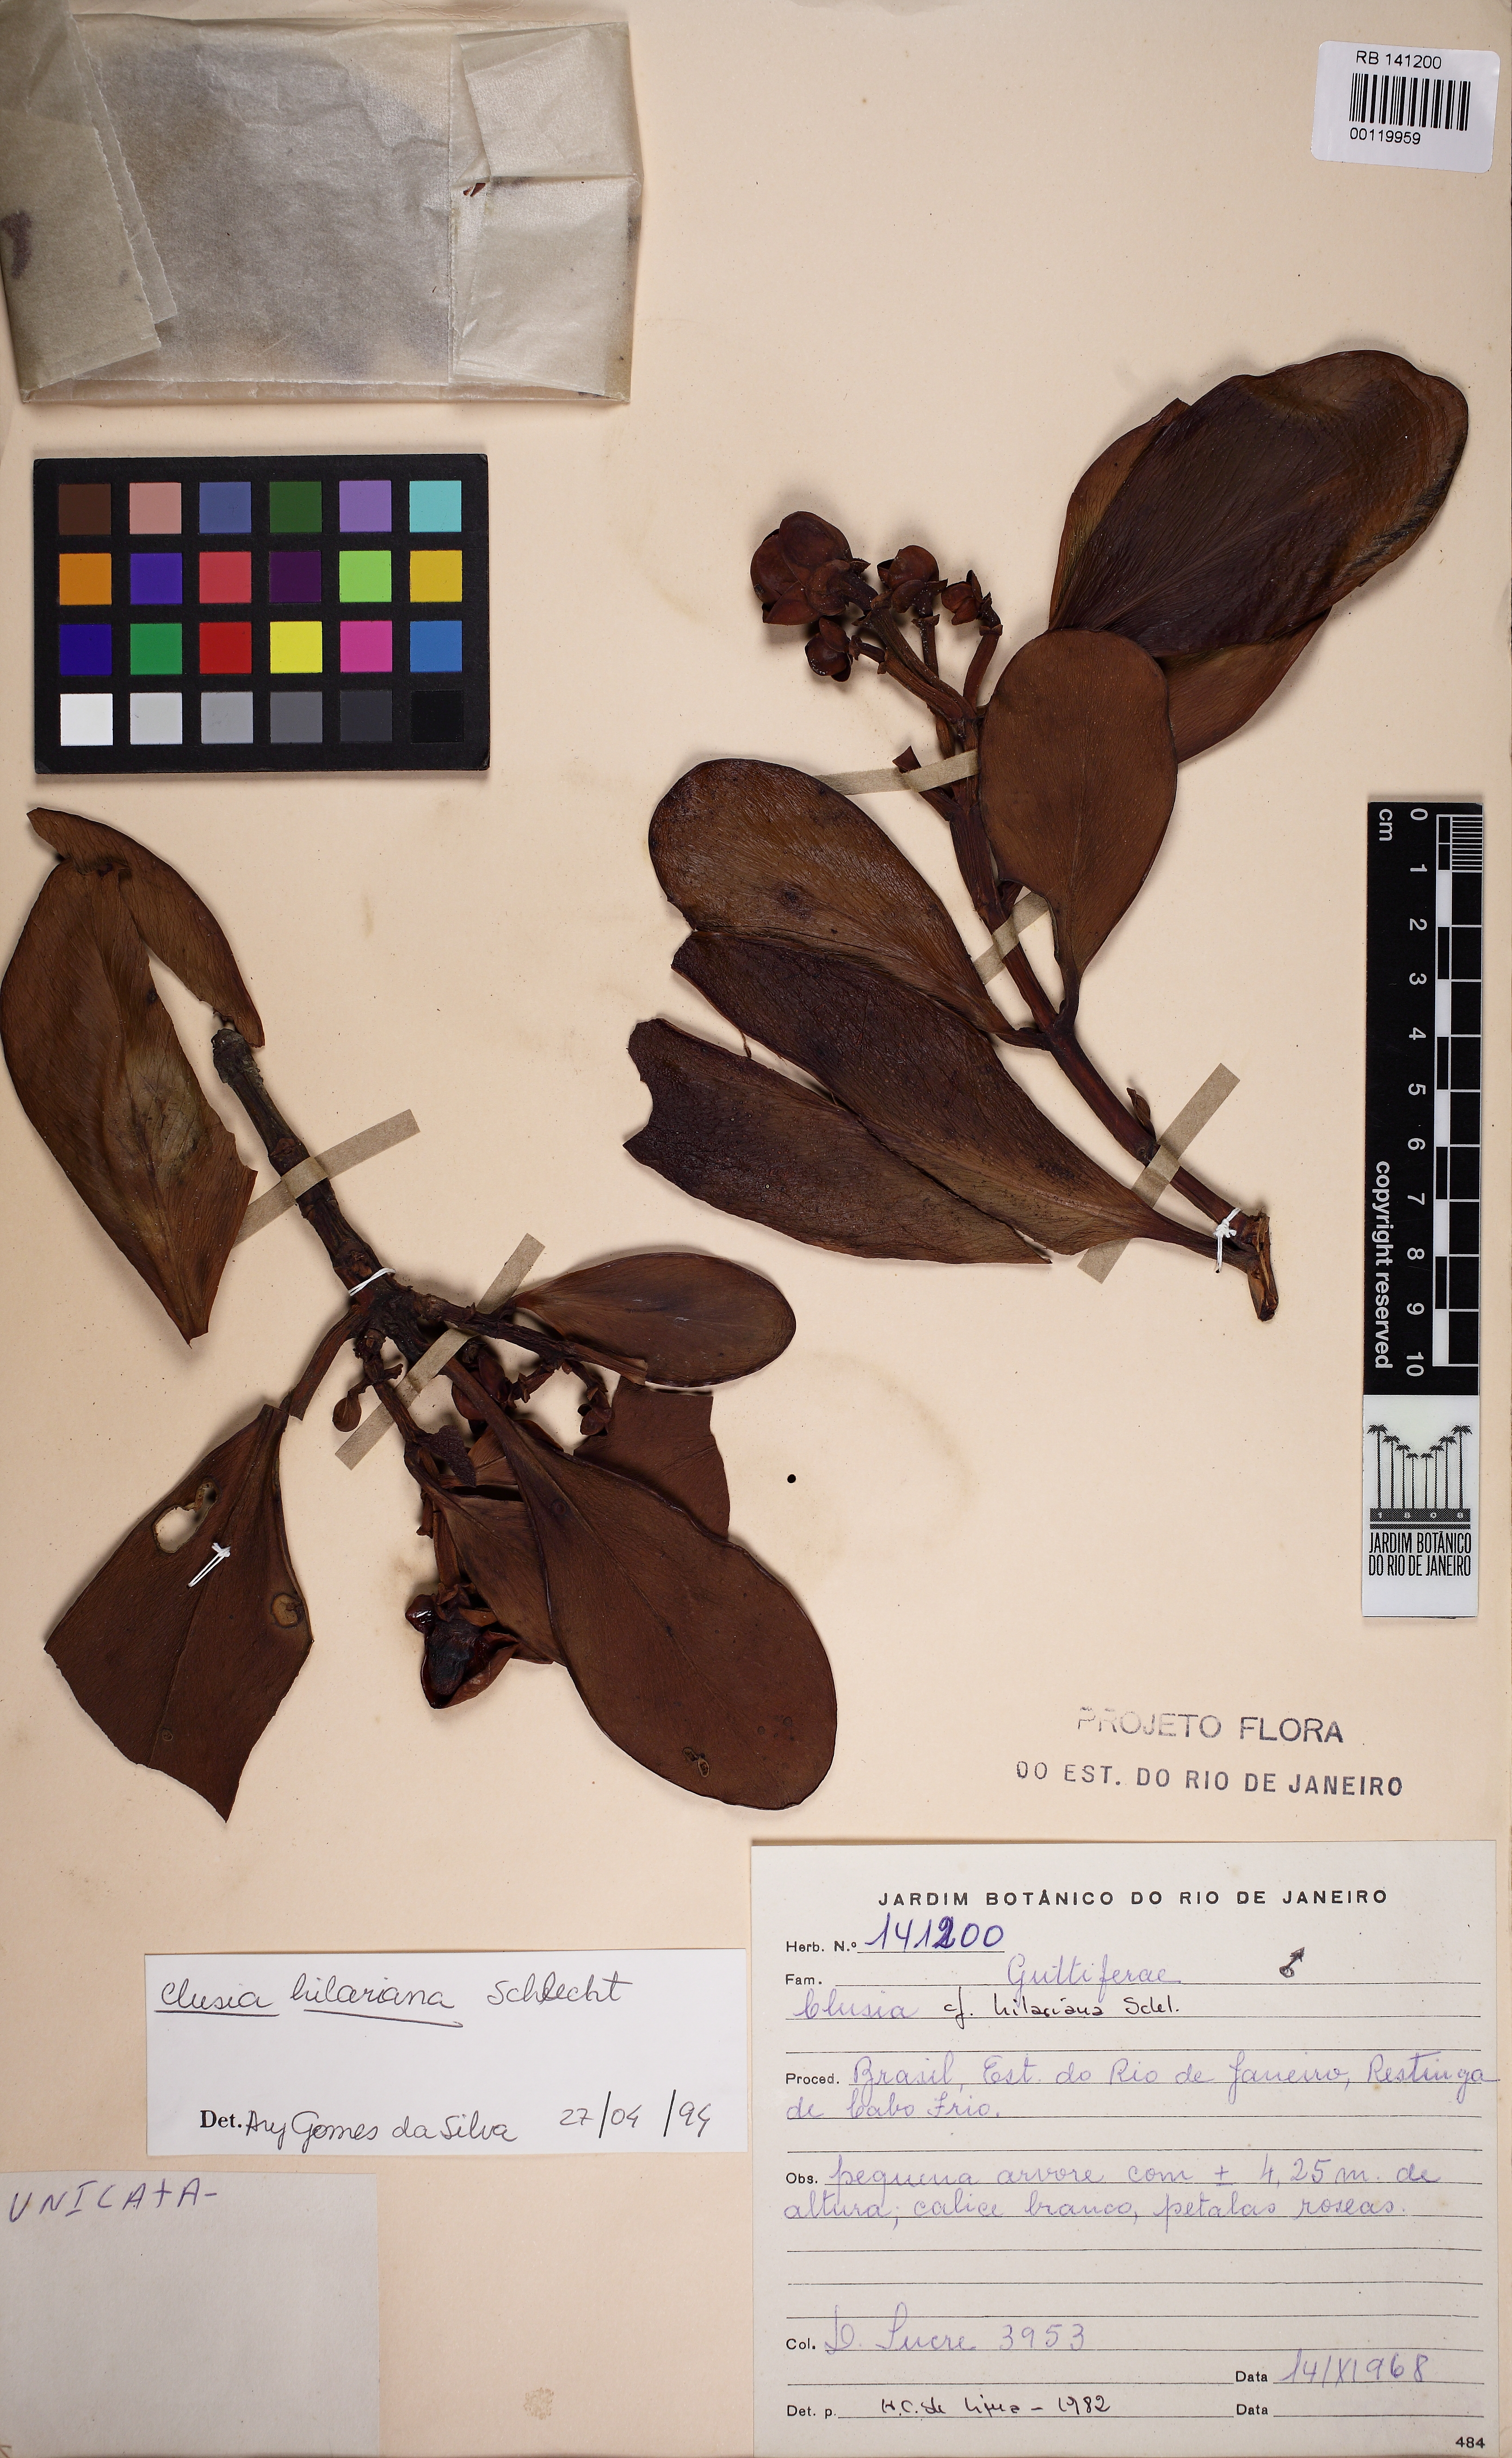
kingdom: Plantae
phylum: Tracheophyta
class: Magnoliopsida
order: Malpighiales
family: Clusiaceae
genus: Clusia
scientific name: Clusia hilariana
